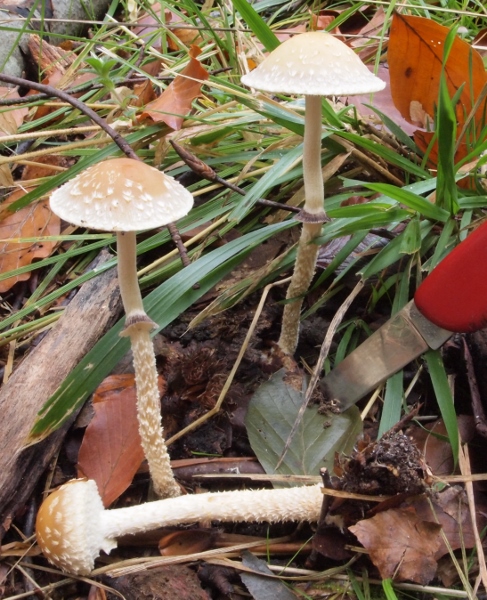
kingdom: Fungi
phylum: Basidiomycota
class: Agaricomycetes
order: Agaricales
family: Strophariaceae
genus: Leratiomyces
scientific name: Leratiomyces squamosus
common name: skællet bredblad
